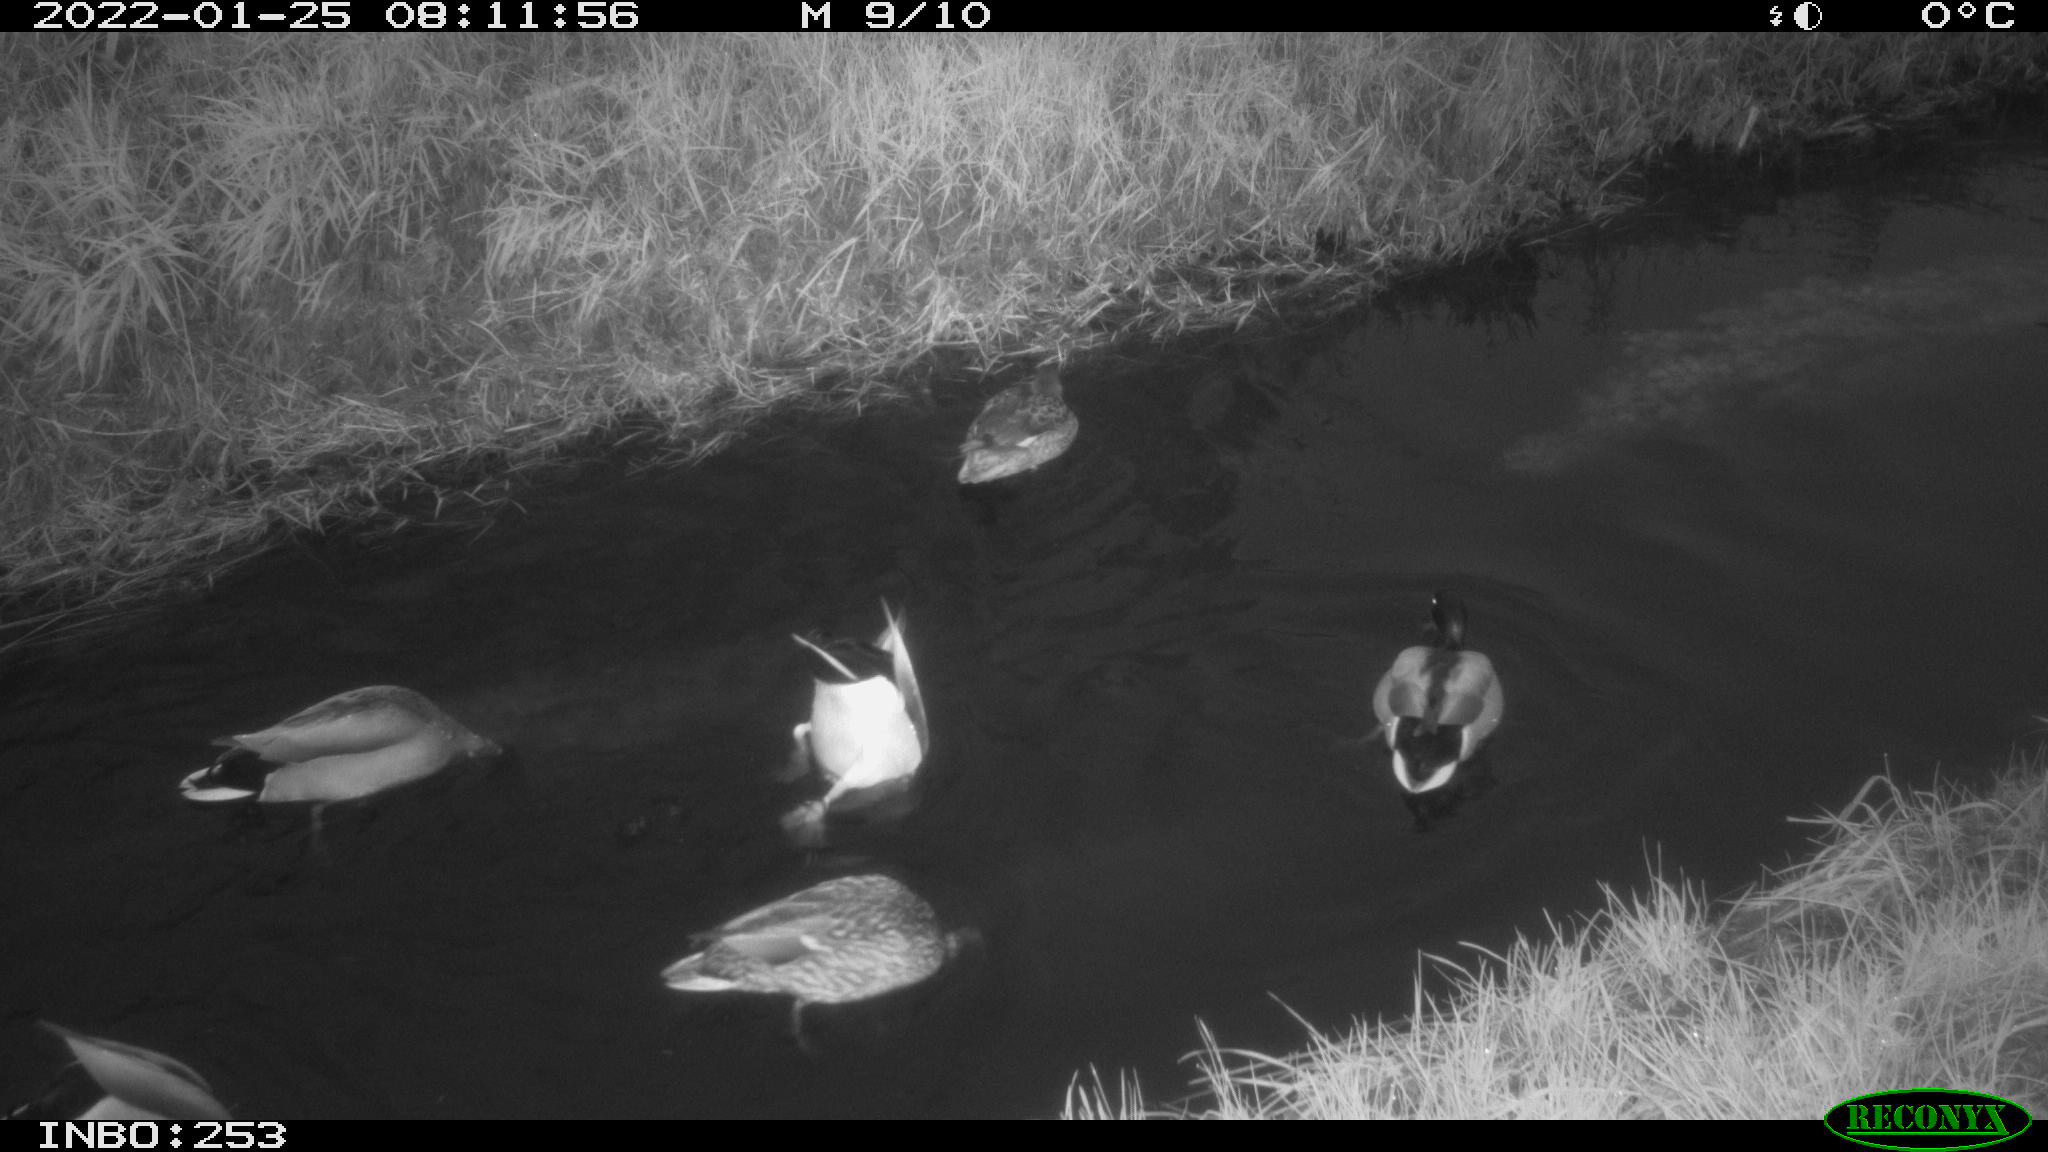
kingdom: Animalia
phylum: Chordata
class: Aves
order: Anseriformes
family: Anatidae
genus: Anas
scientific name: Anas
